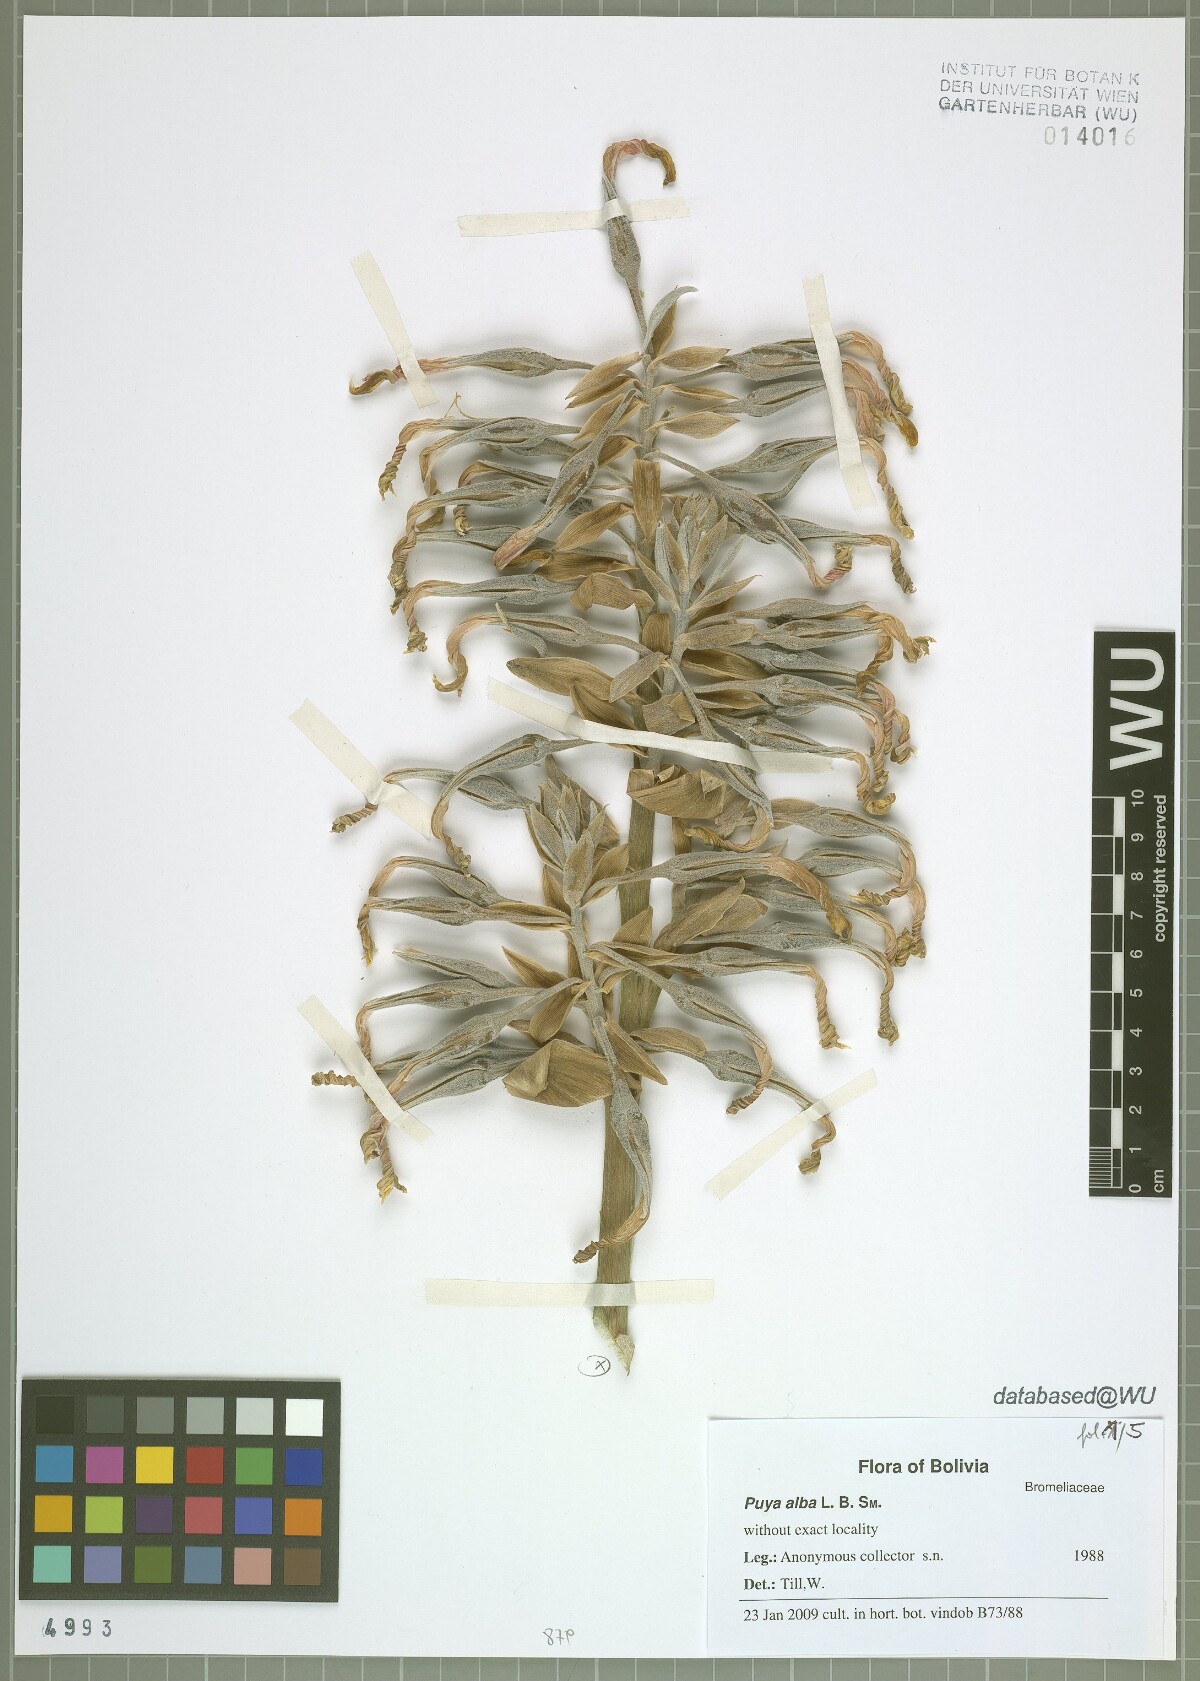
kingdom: Plantae
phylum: Tracheophyta
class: Liliopsida
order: Poales
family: Bromeliaceae
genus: Puya
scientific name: Puya alba
